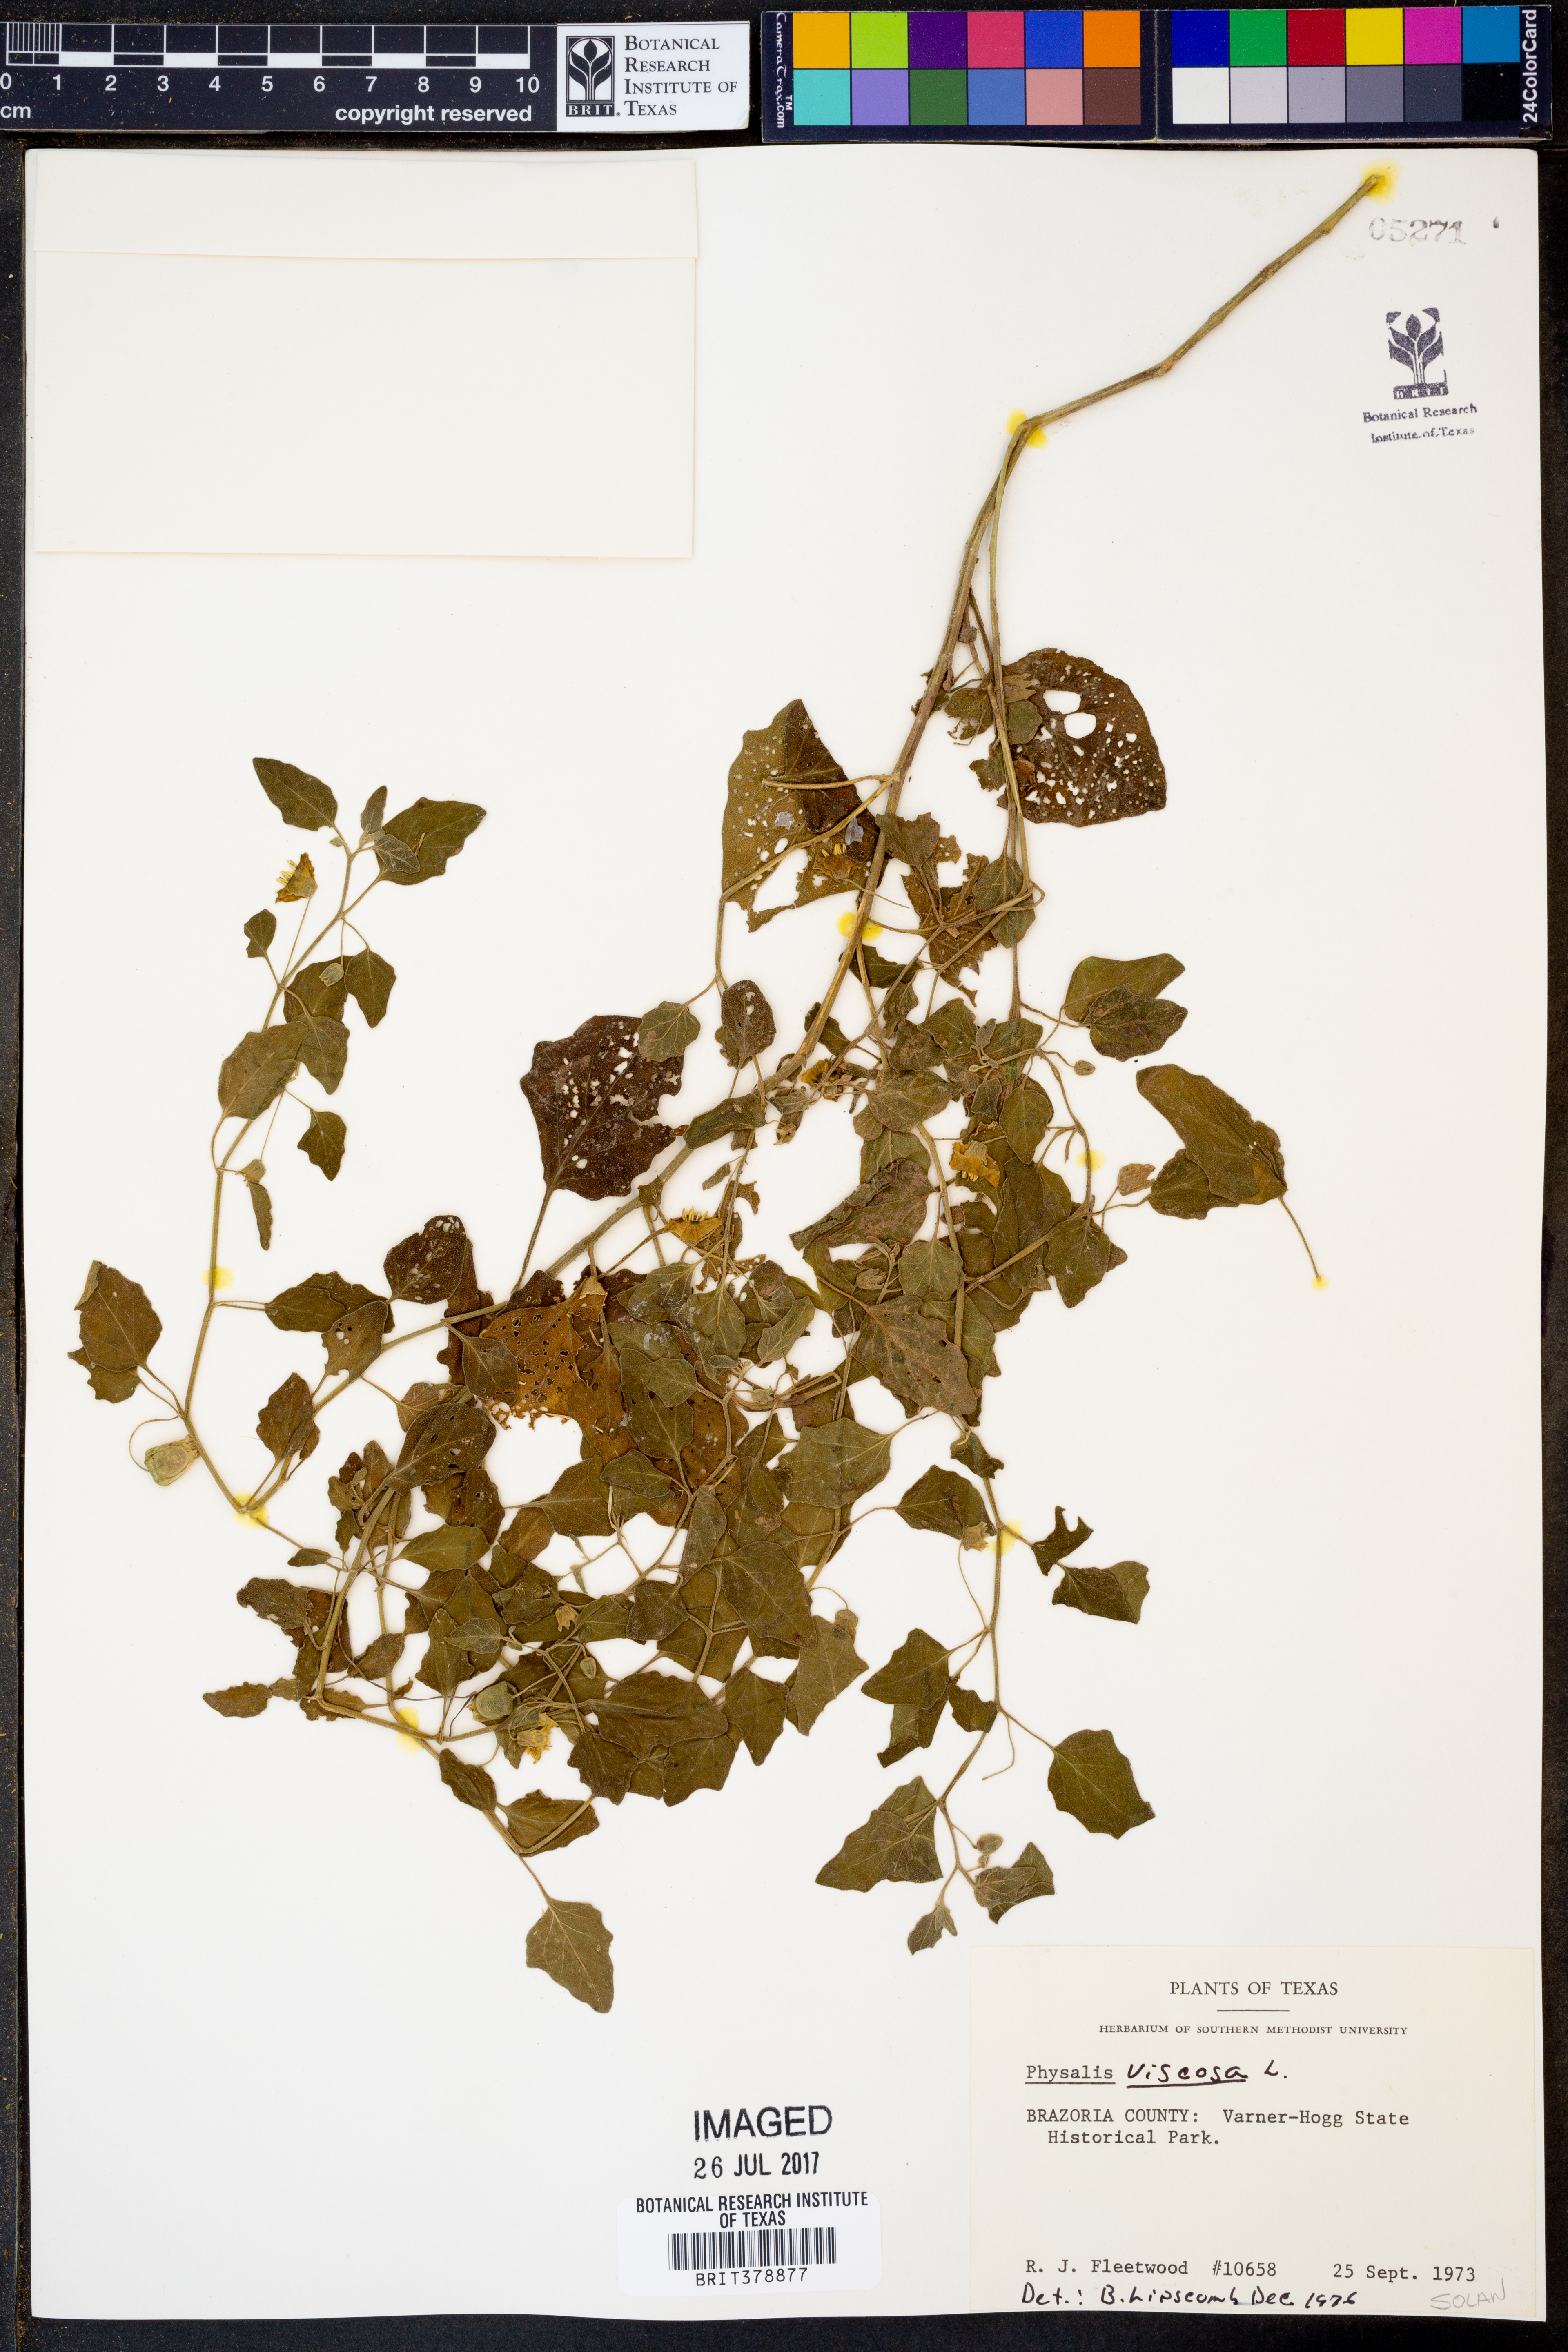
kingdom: Plantae
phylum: Tracheophyta
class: Magnoliopsida
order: Solanales
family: Solanaceae
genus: Physalis
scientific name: Physalis viscosa
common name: Stellate ground-cherry
